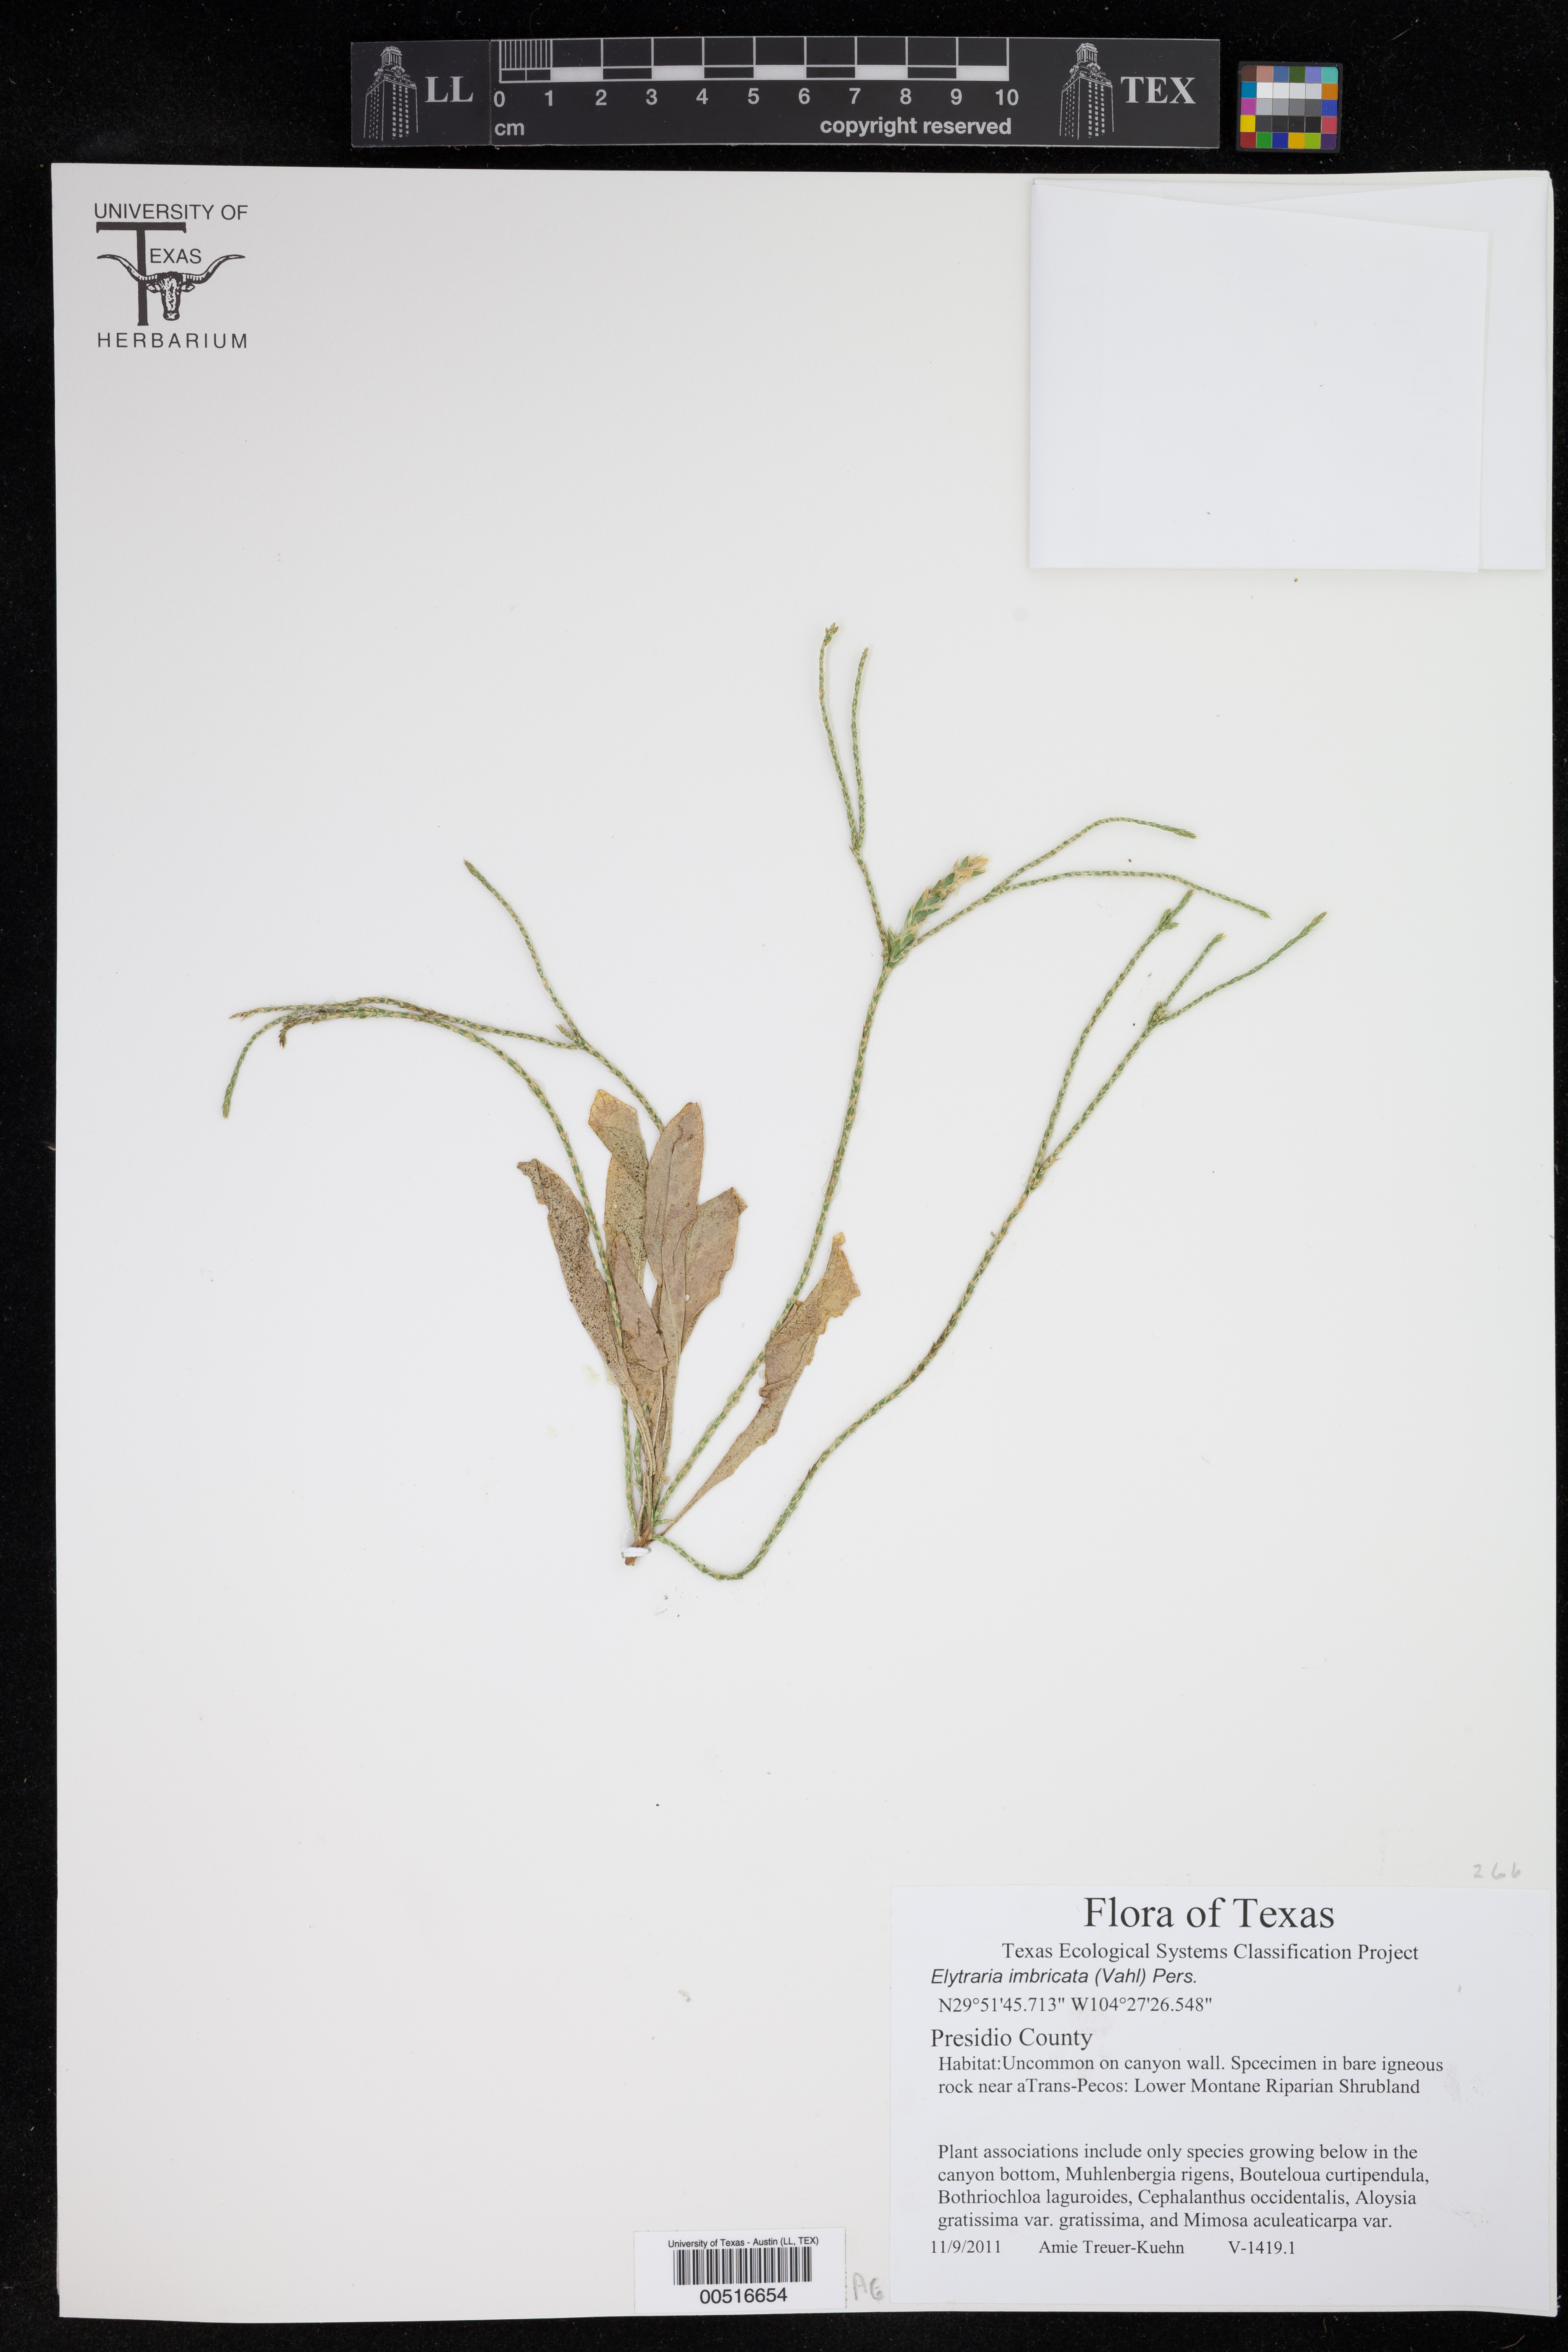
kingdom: Plantae
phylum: Tracheophyta
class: Magnoliopsida
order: Lamiales
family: Acanthaceae
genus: Elytraria
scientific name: Elytraria imbricata
